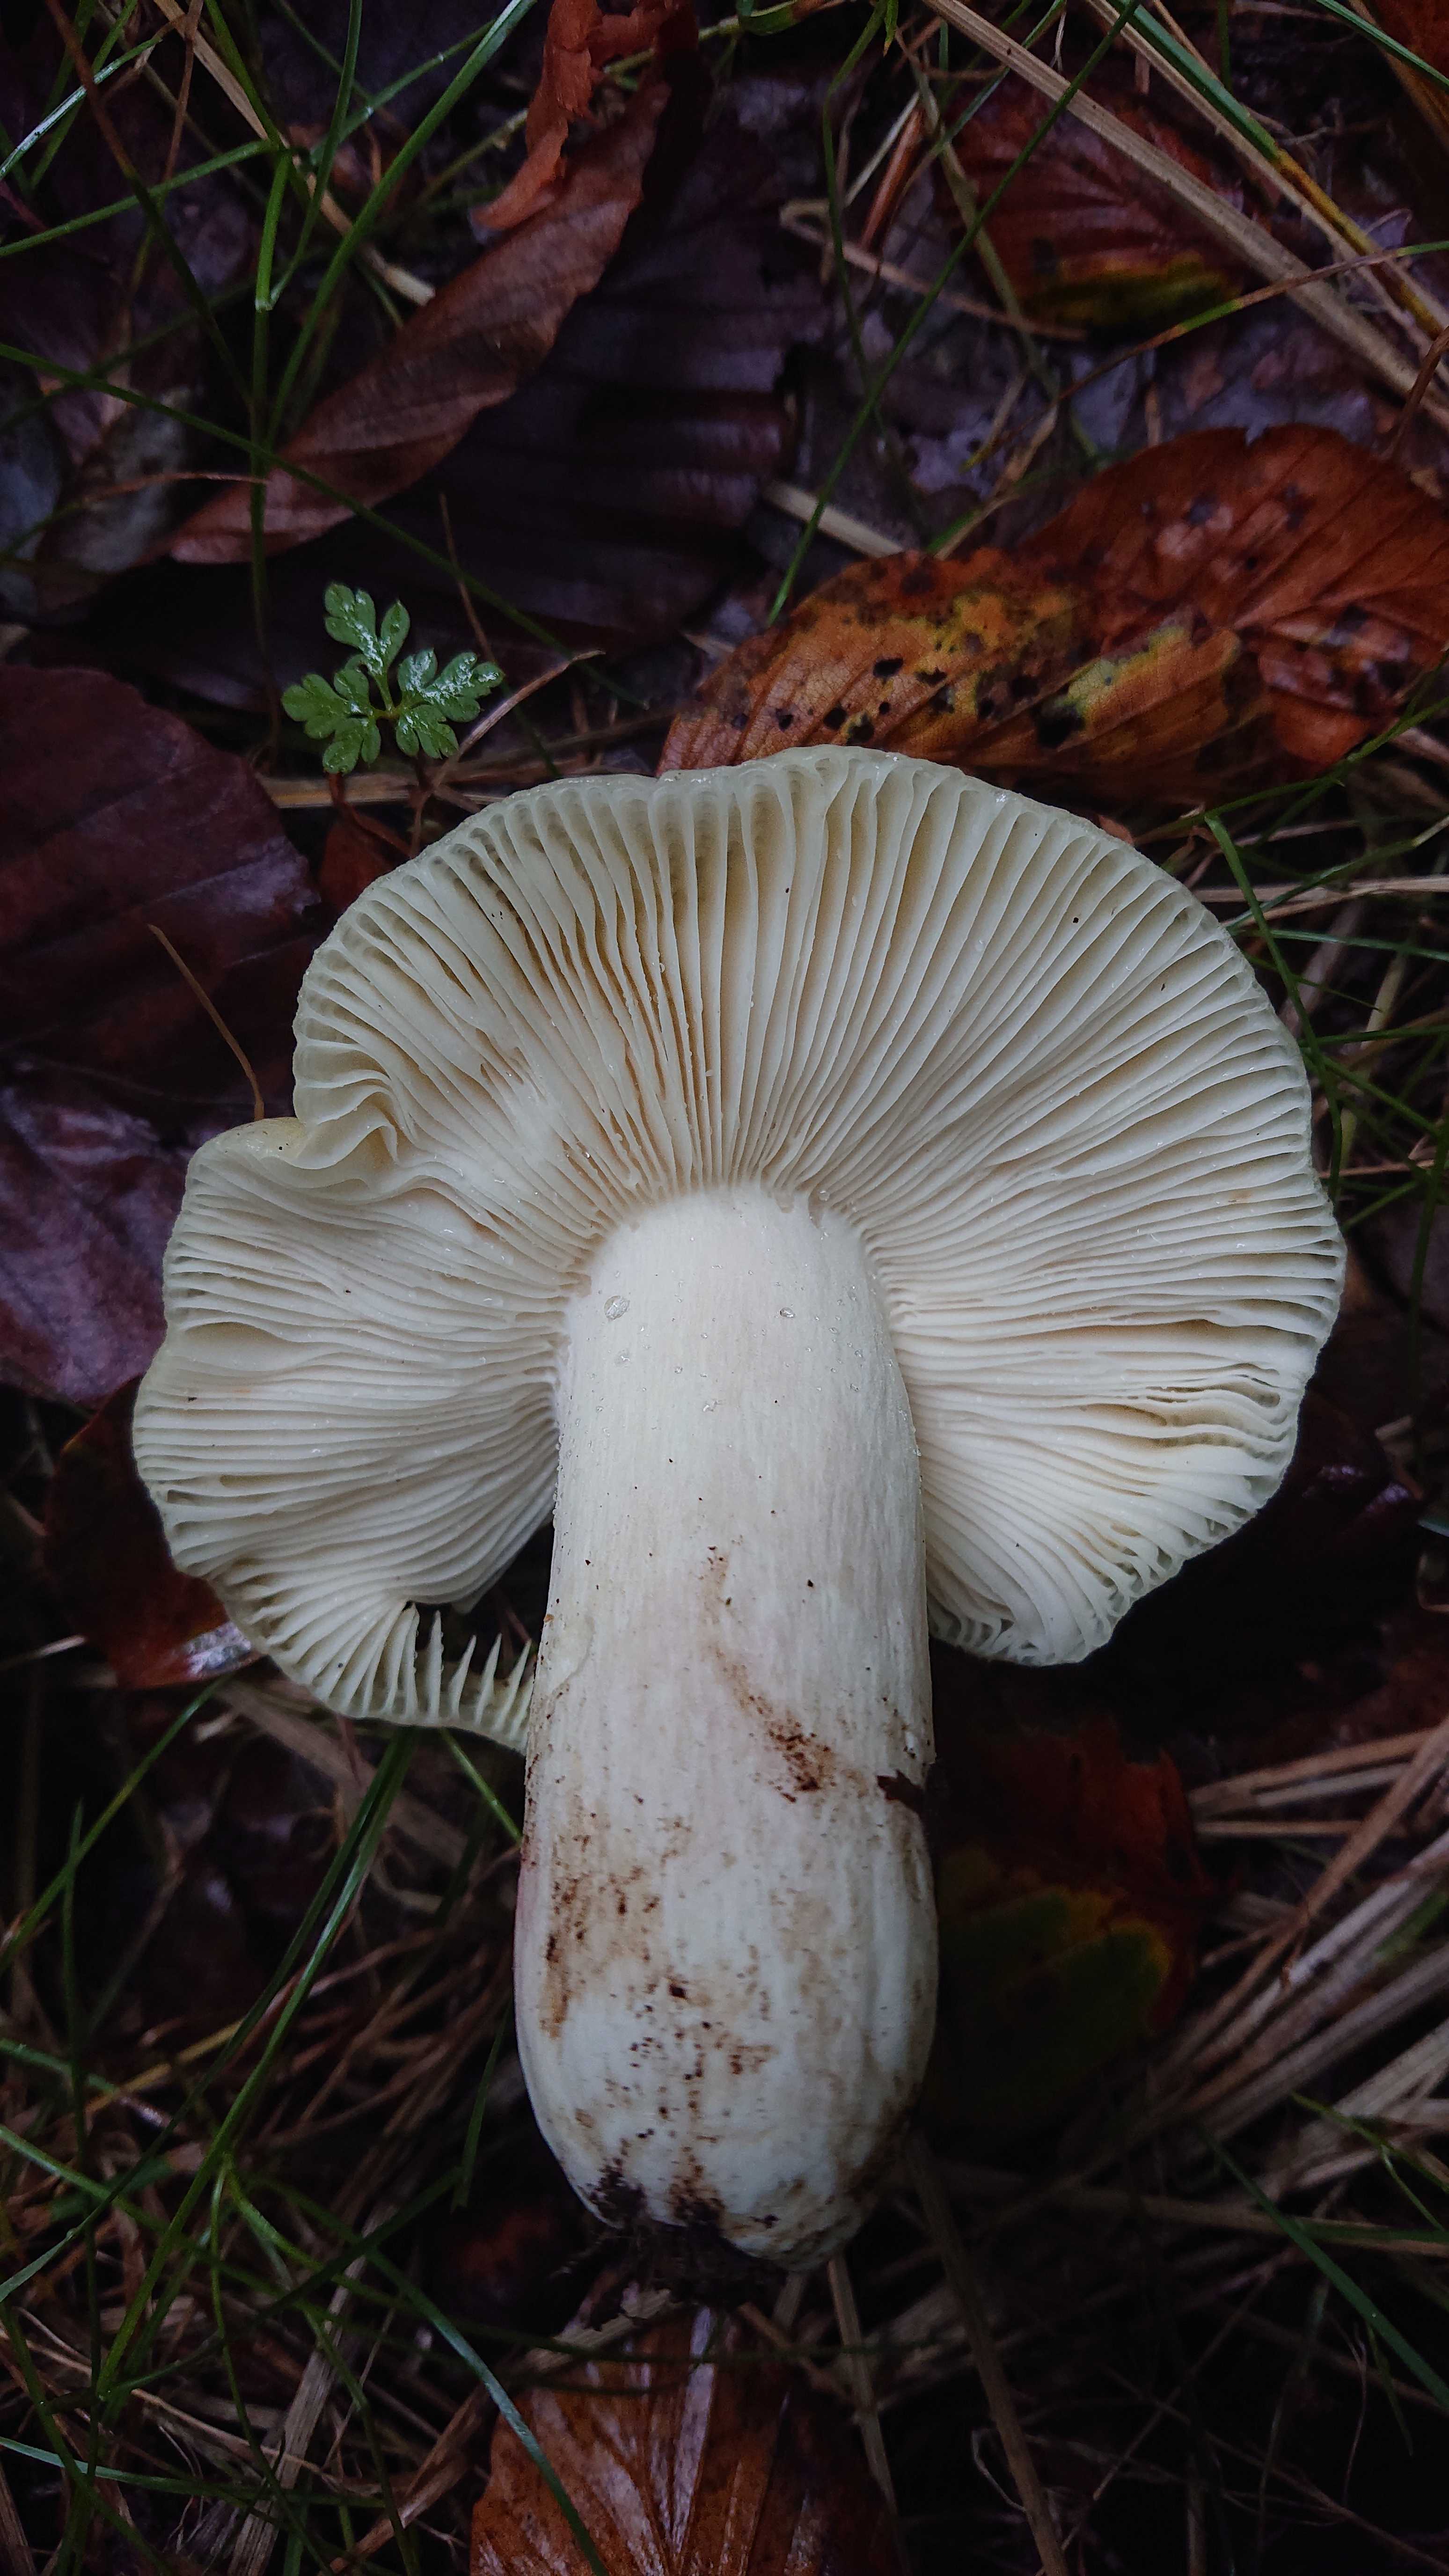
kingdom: Fungi
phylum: Basidiomycota
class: Agaricomycetes
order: Russulales
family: Russulaceae
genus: Russula
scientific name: Russula violeipes
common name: ferskengul skørhat
